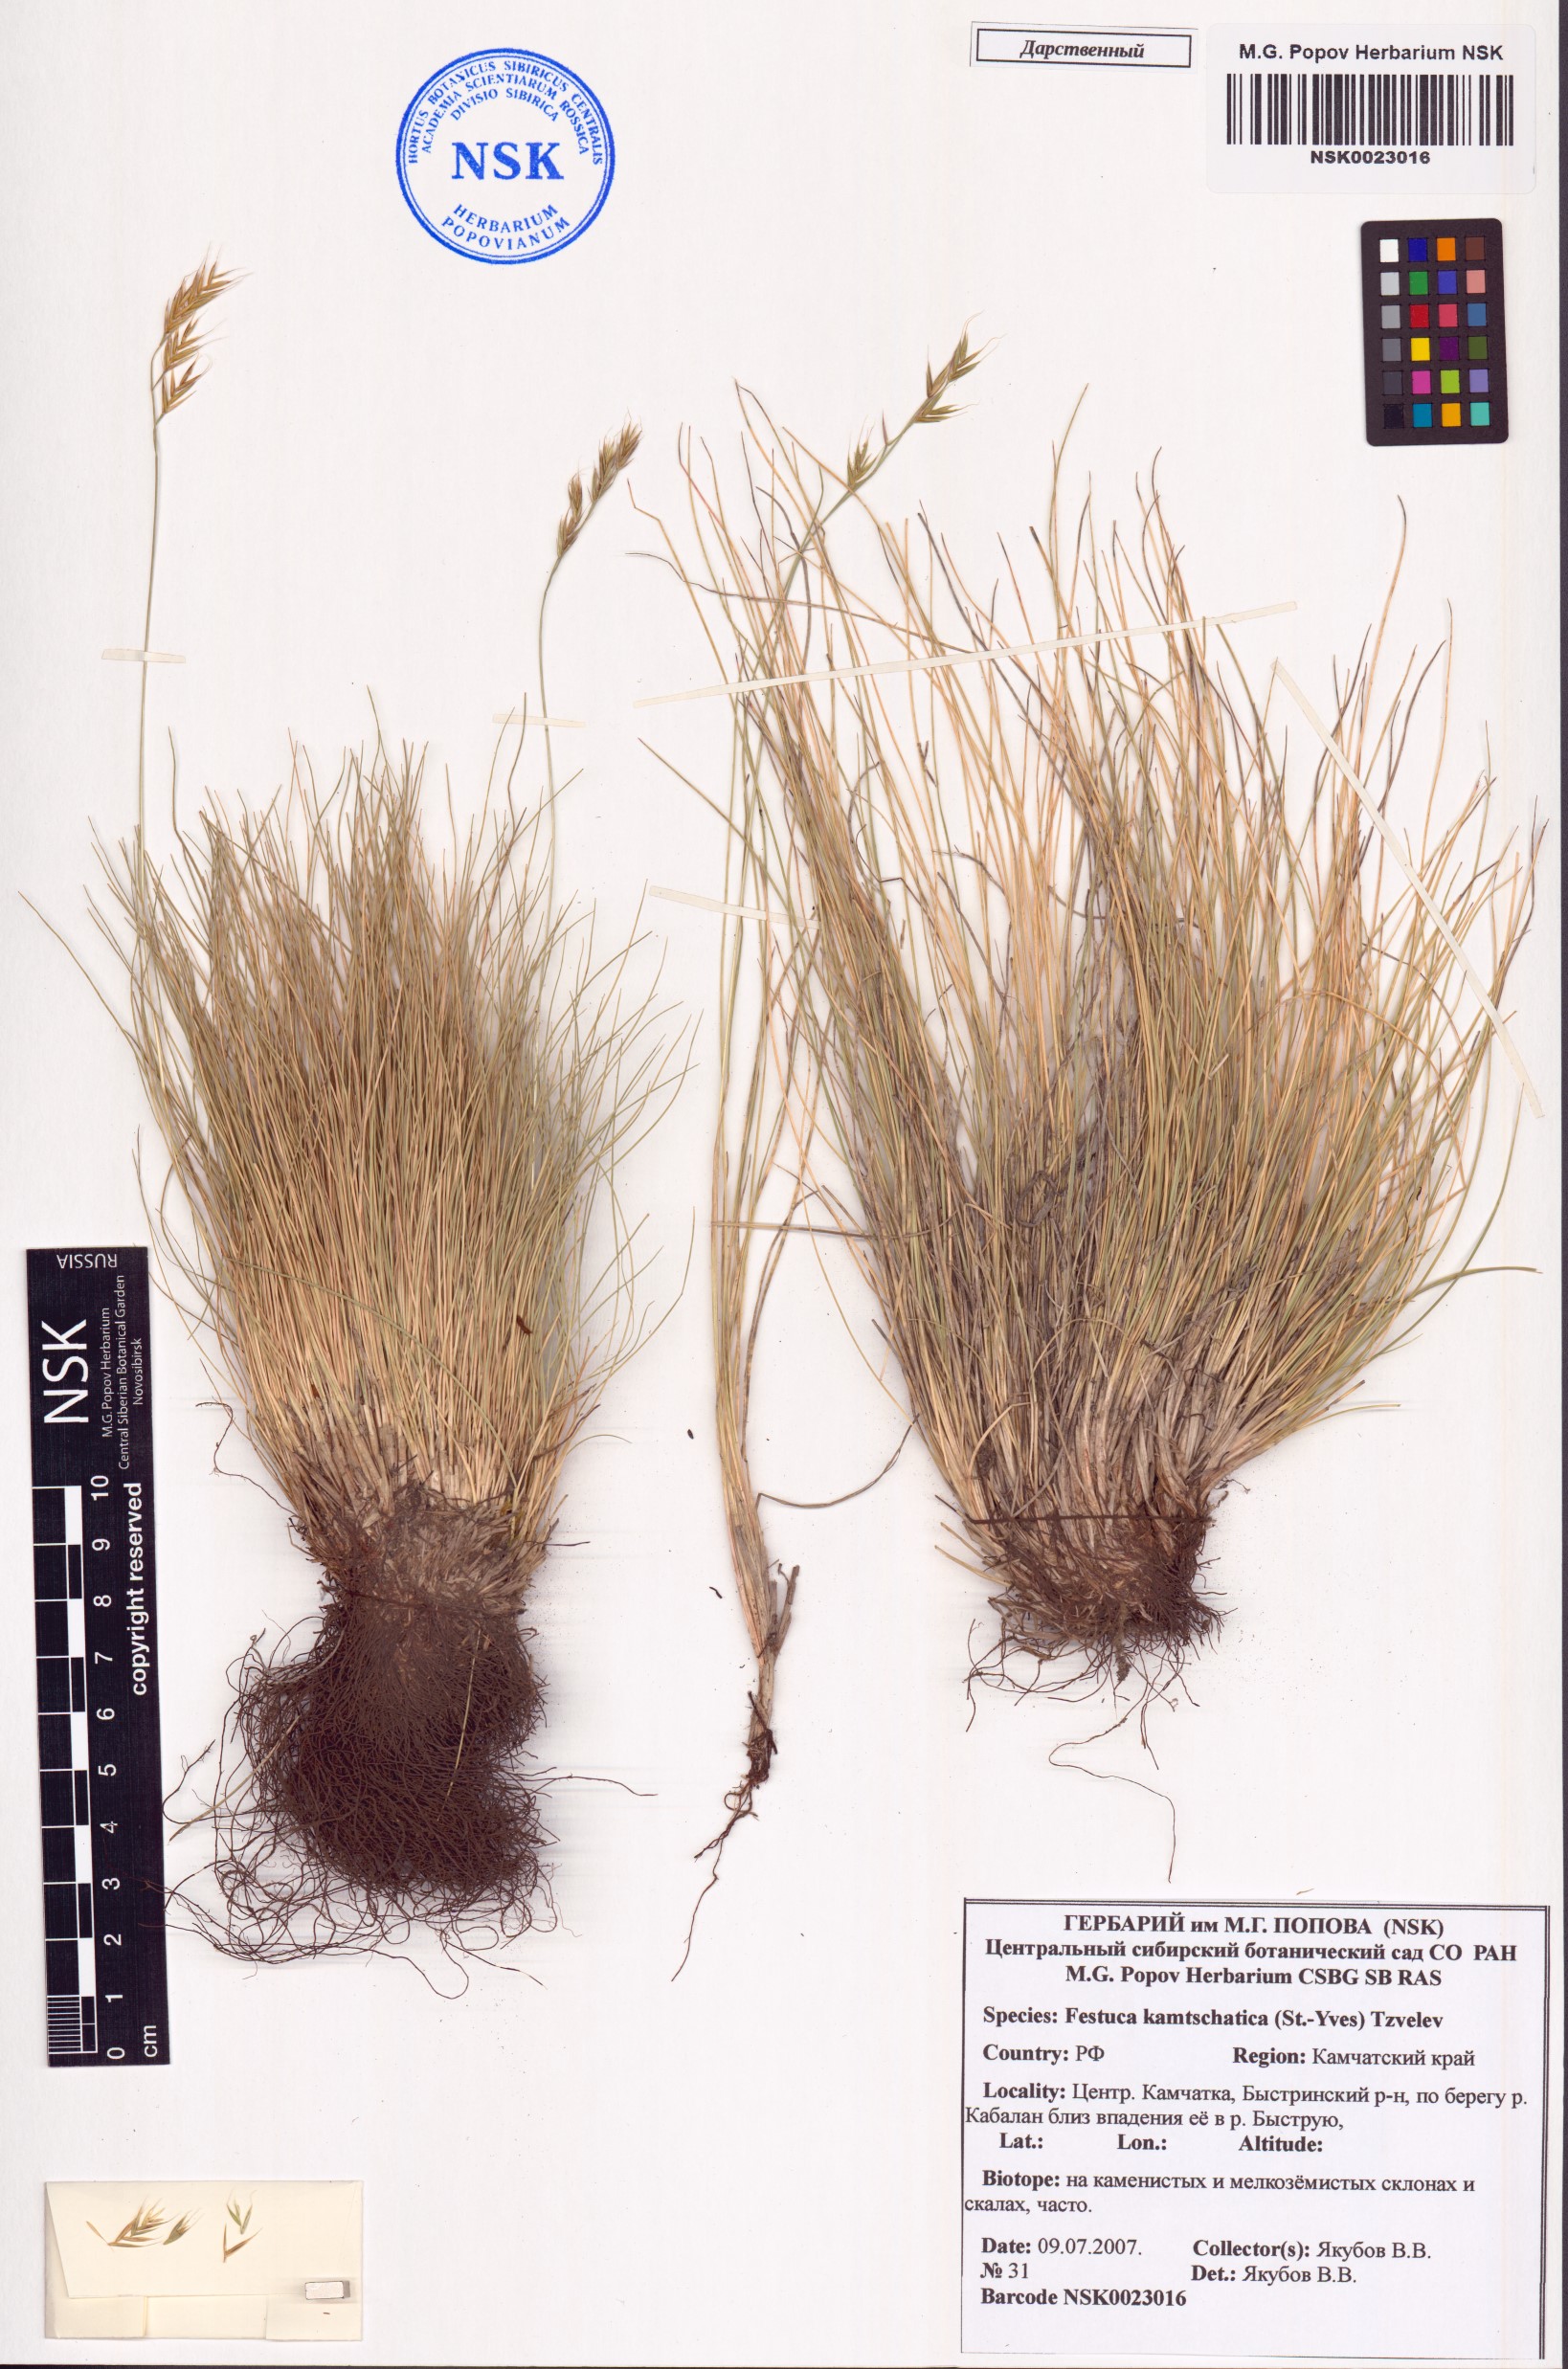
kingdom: Plantae
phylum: Tracheophyta
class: Liliopsida
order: Poales
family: Poaceae
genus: Festuca
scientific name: Festuca kamtschatica
